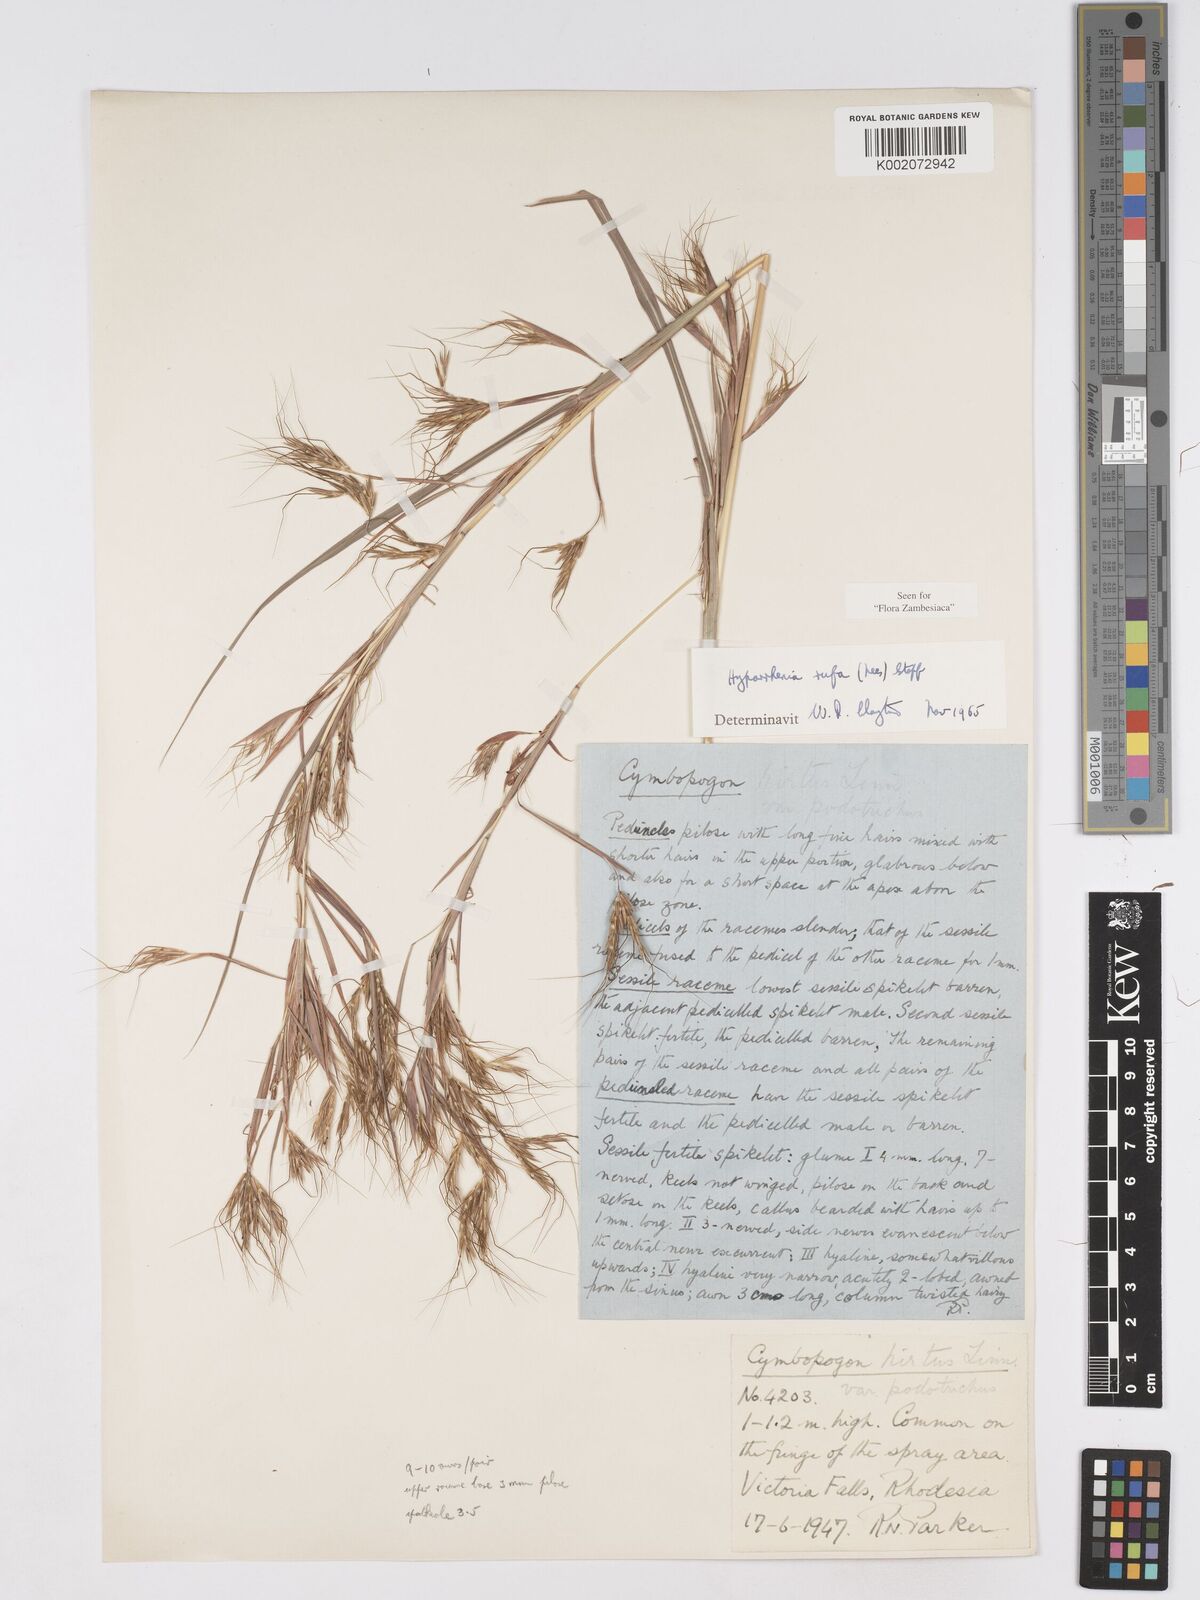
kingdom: Plantae
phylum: Tracheophyta
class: Liliopsida
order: Poales
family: Poaceae
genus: Hyparrhenia
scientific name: Hyparrhenia rufa
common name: Jaraguagrass
